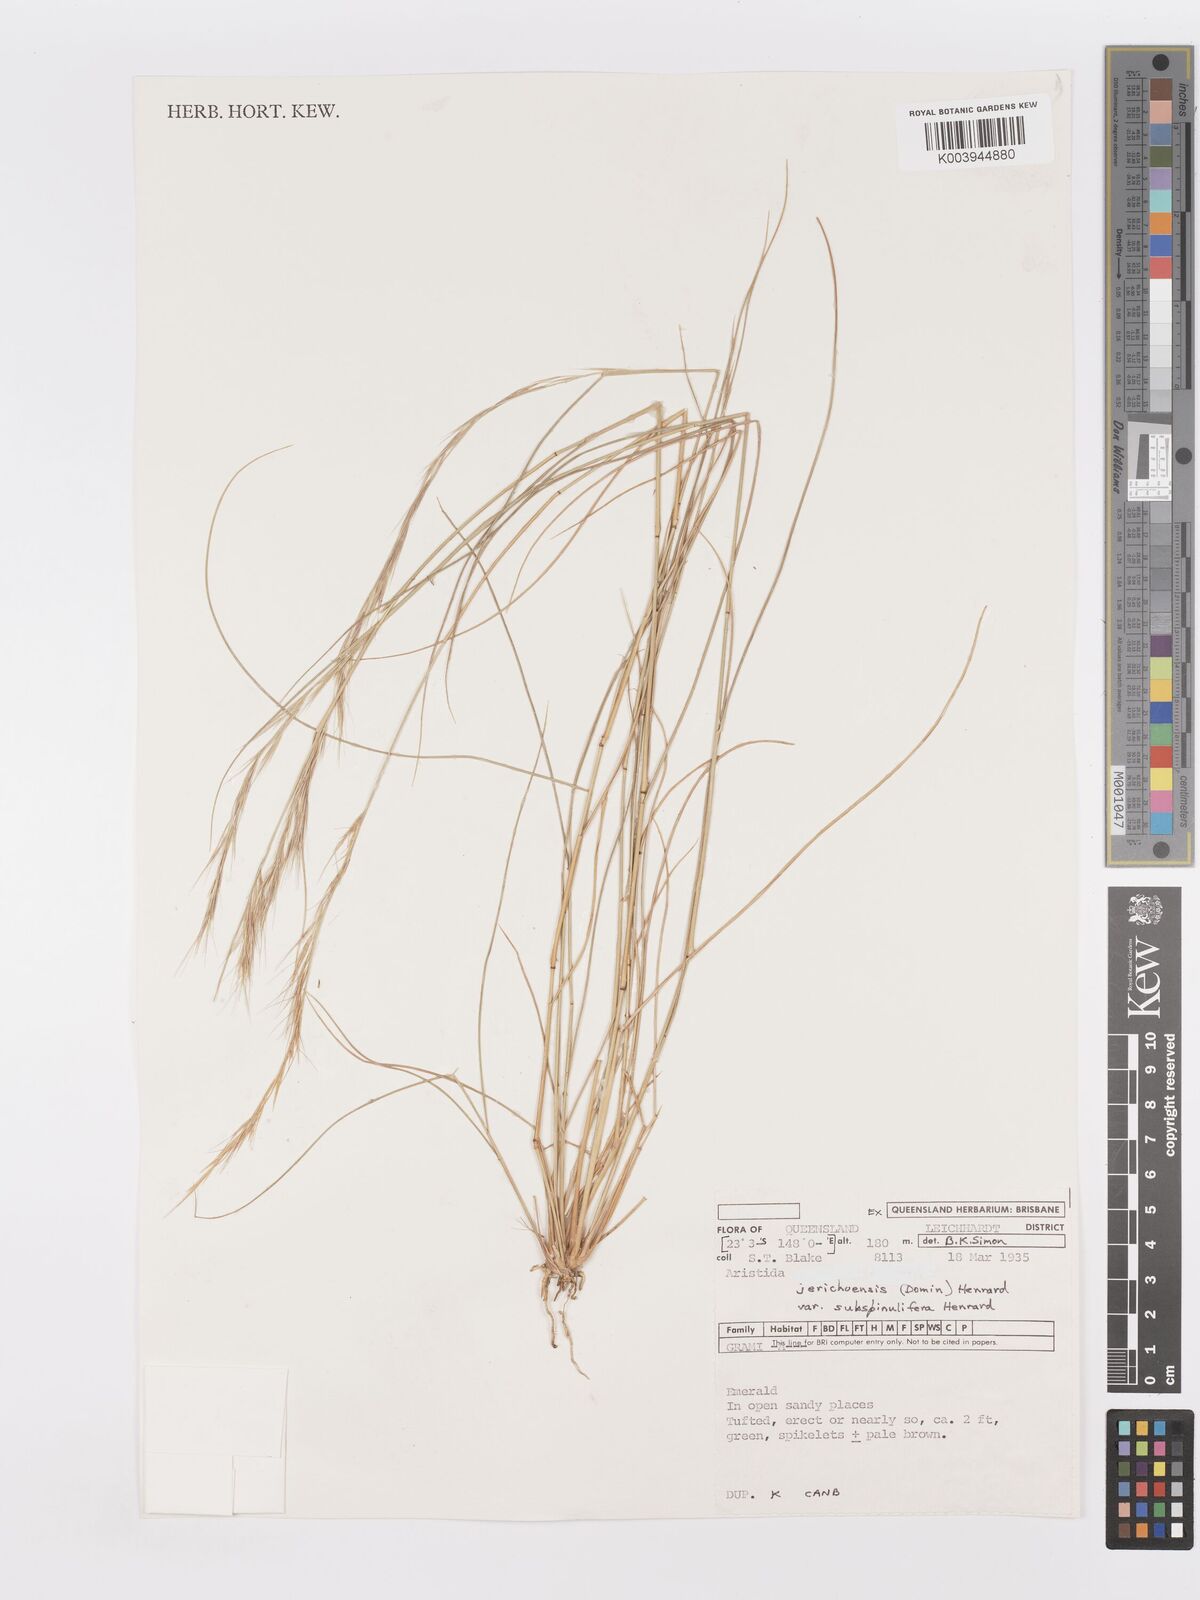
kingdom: Plantae
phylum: Tracheophyta
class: Liliopsida
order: Poales
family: Poaceae
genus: Aristida
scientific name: Aristida jerichoensis
